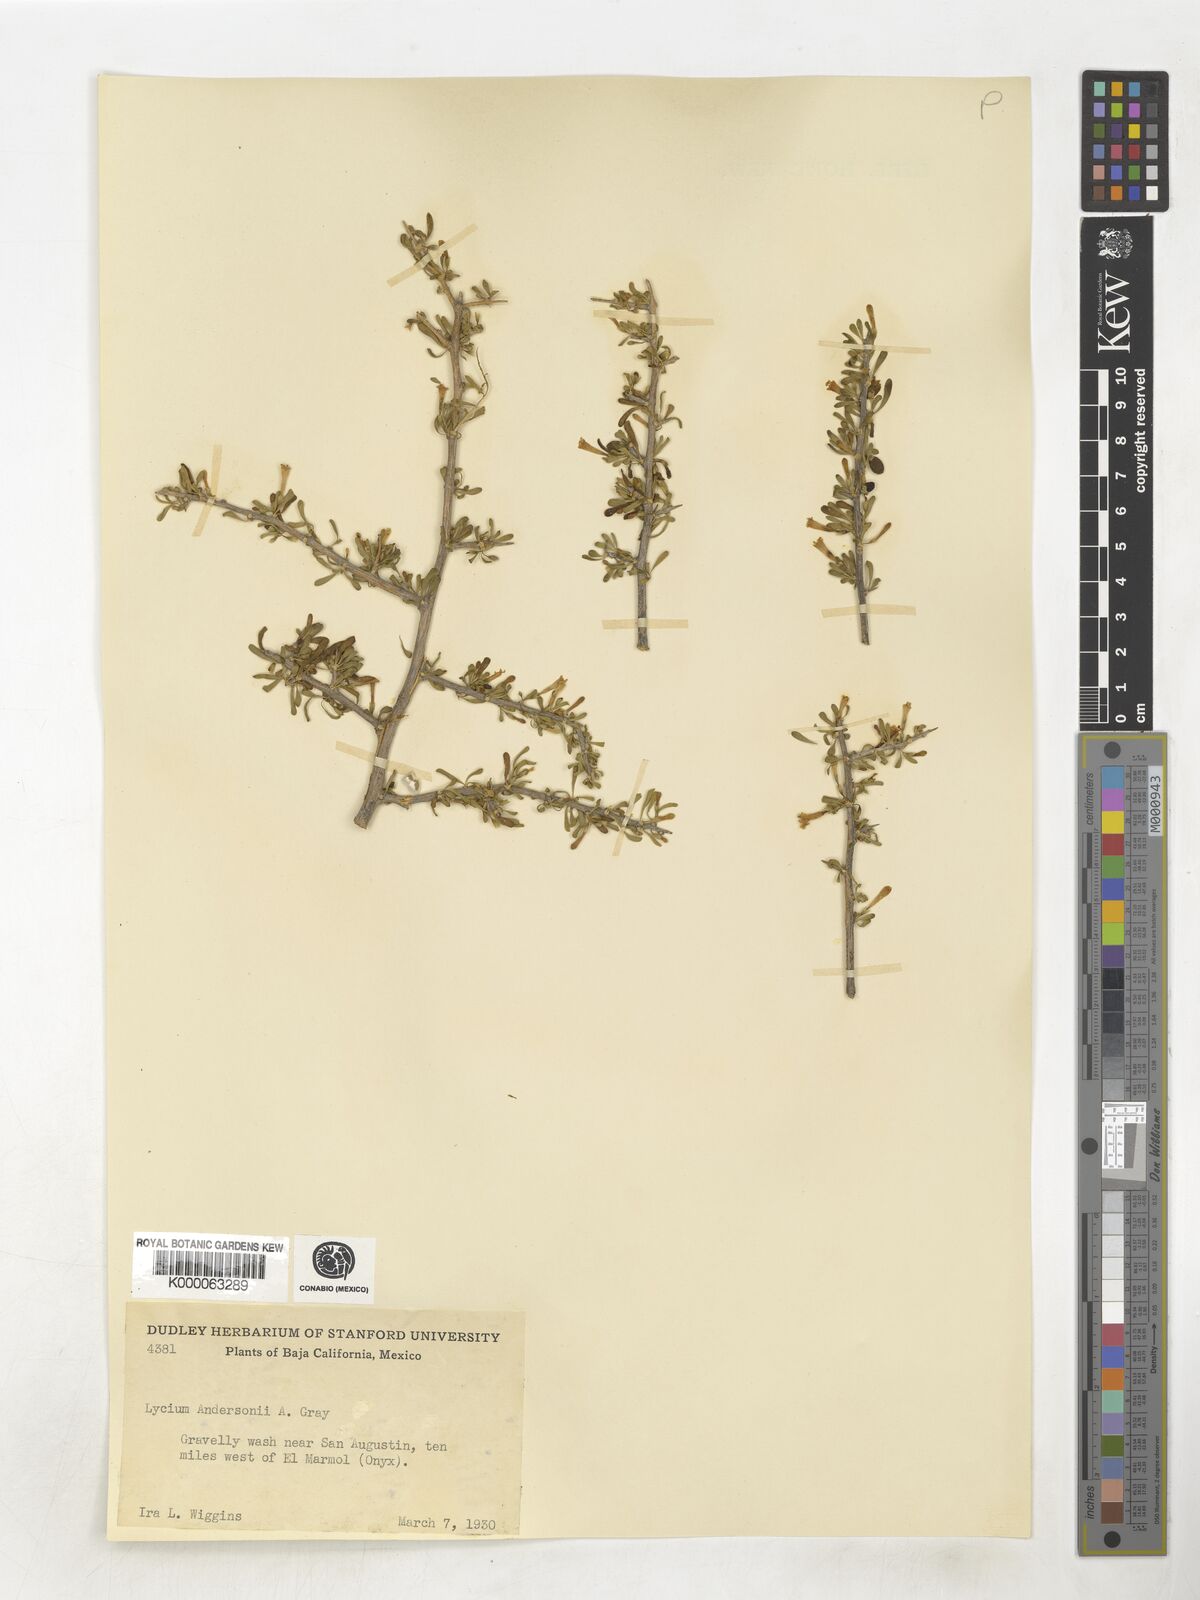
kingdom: Plantae
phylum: Tracheophyta
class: Magnoliopsida
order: Solanales
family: Solanaceae
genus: Lycium
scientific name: Lycium andersonii
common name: Water-jacket
